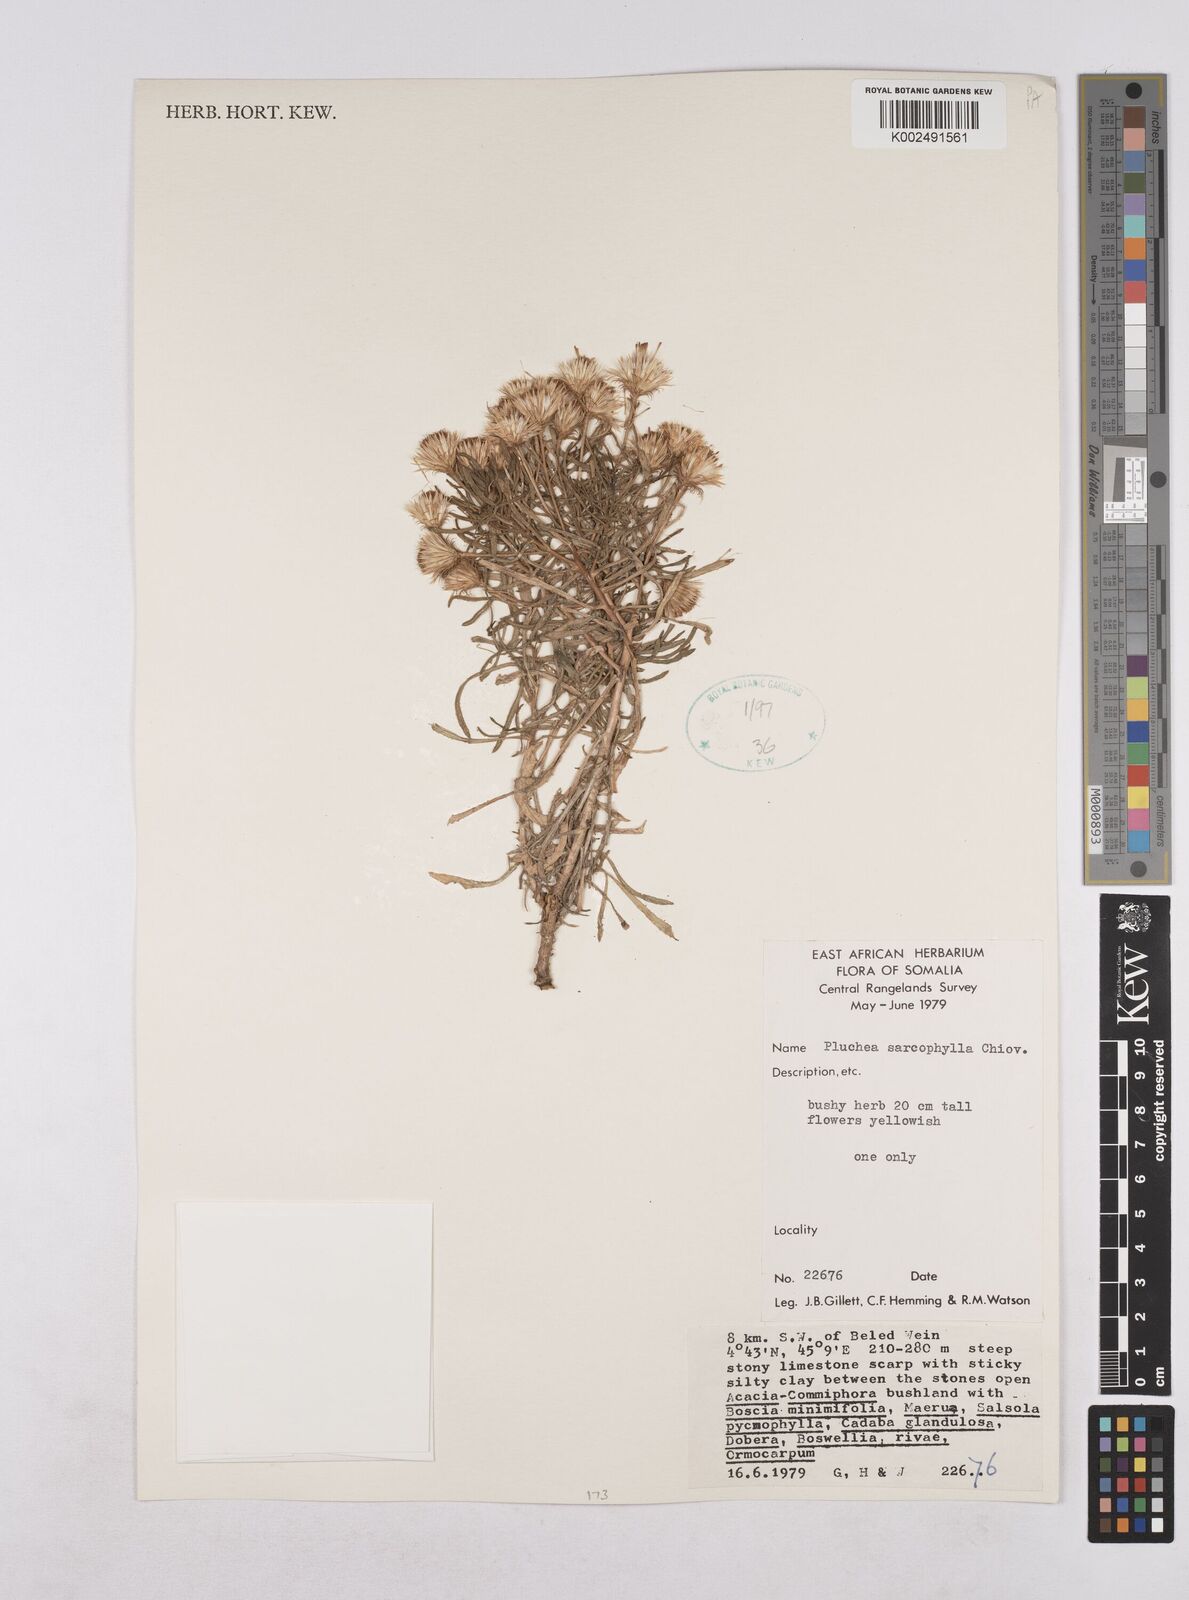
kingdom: Plantae
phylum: Tracheophyta
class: Magnoliopsida
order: Asterales
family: Asteraceae
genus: Pluchea
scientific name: Pluchea sarcophylla
